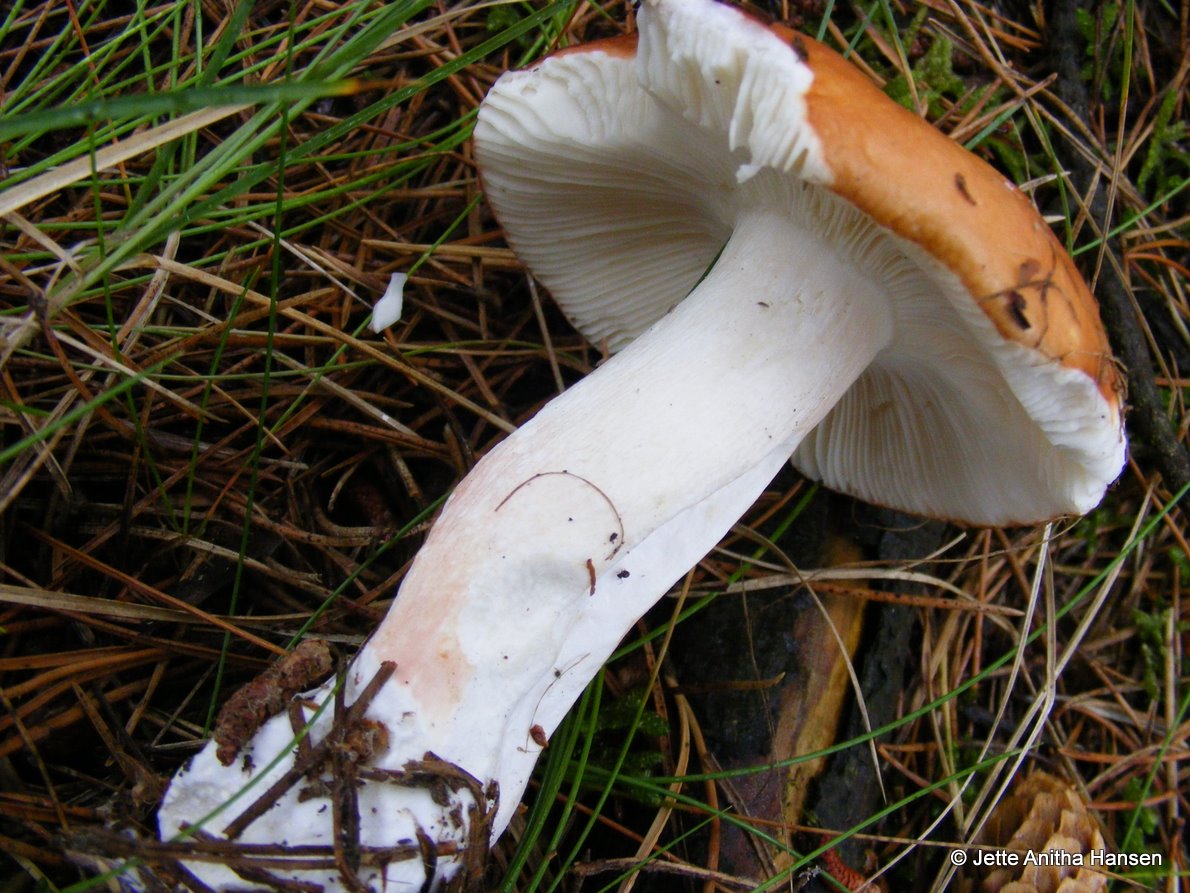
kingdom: Fungi
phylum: Basidiomycota
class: Agaricomycetes
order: Russulales
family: Russulaceae
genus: Russula
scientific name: Russula paludosa
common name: prægtig skørhat
